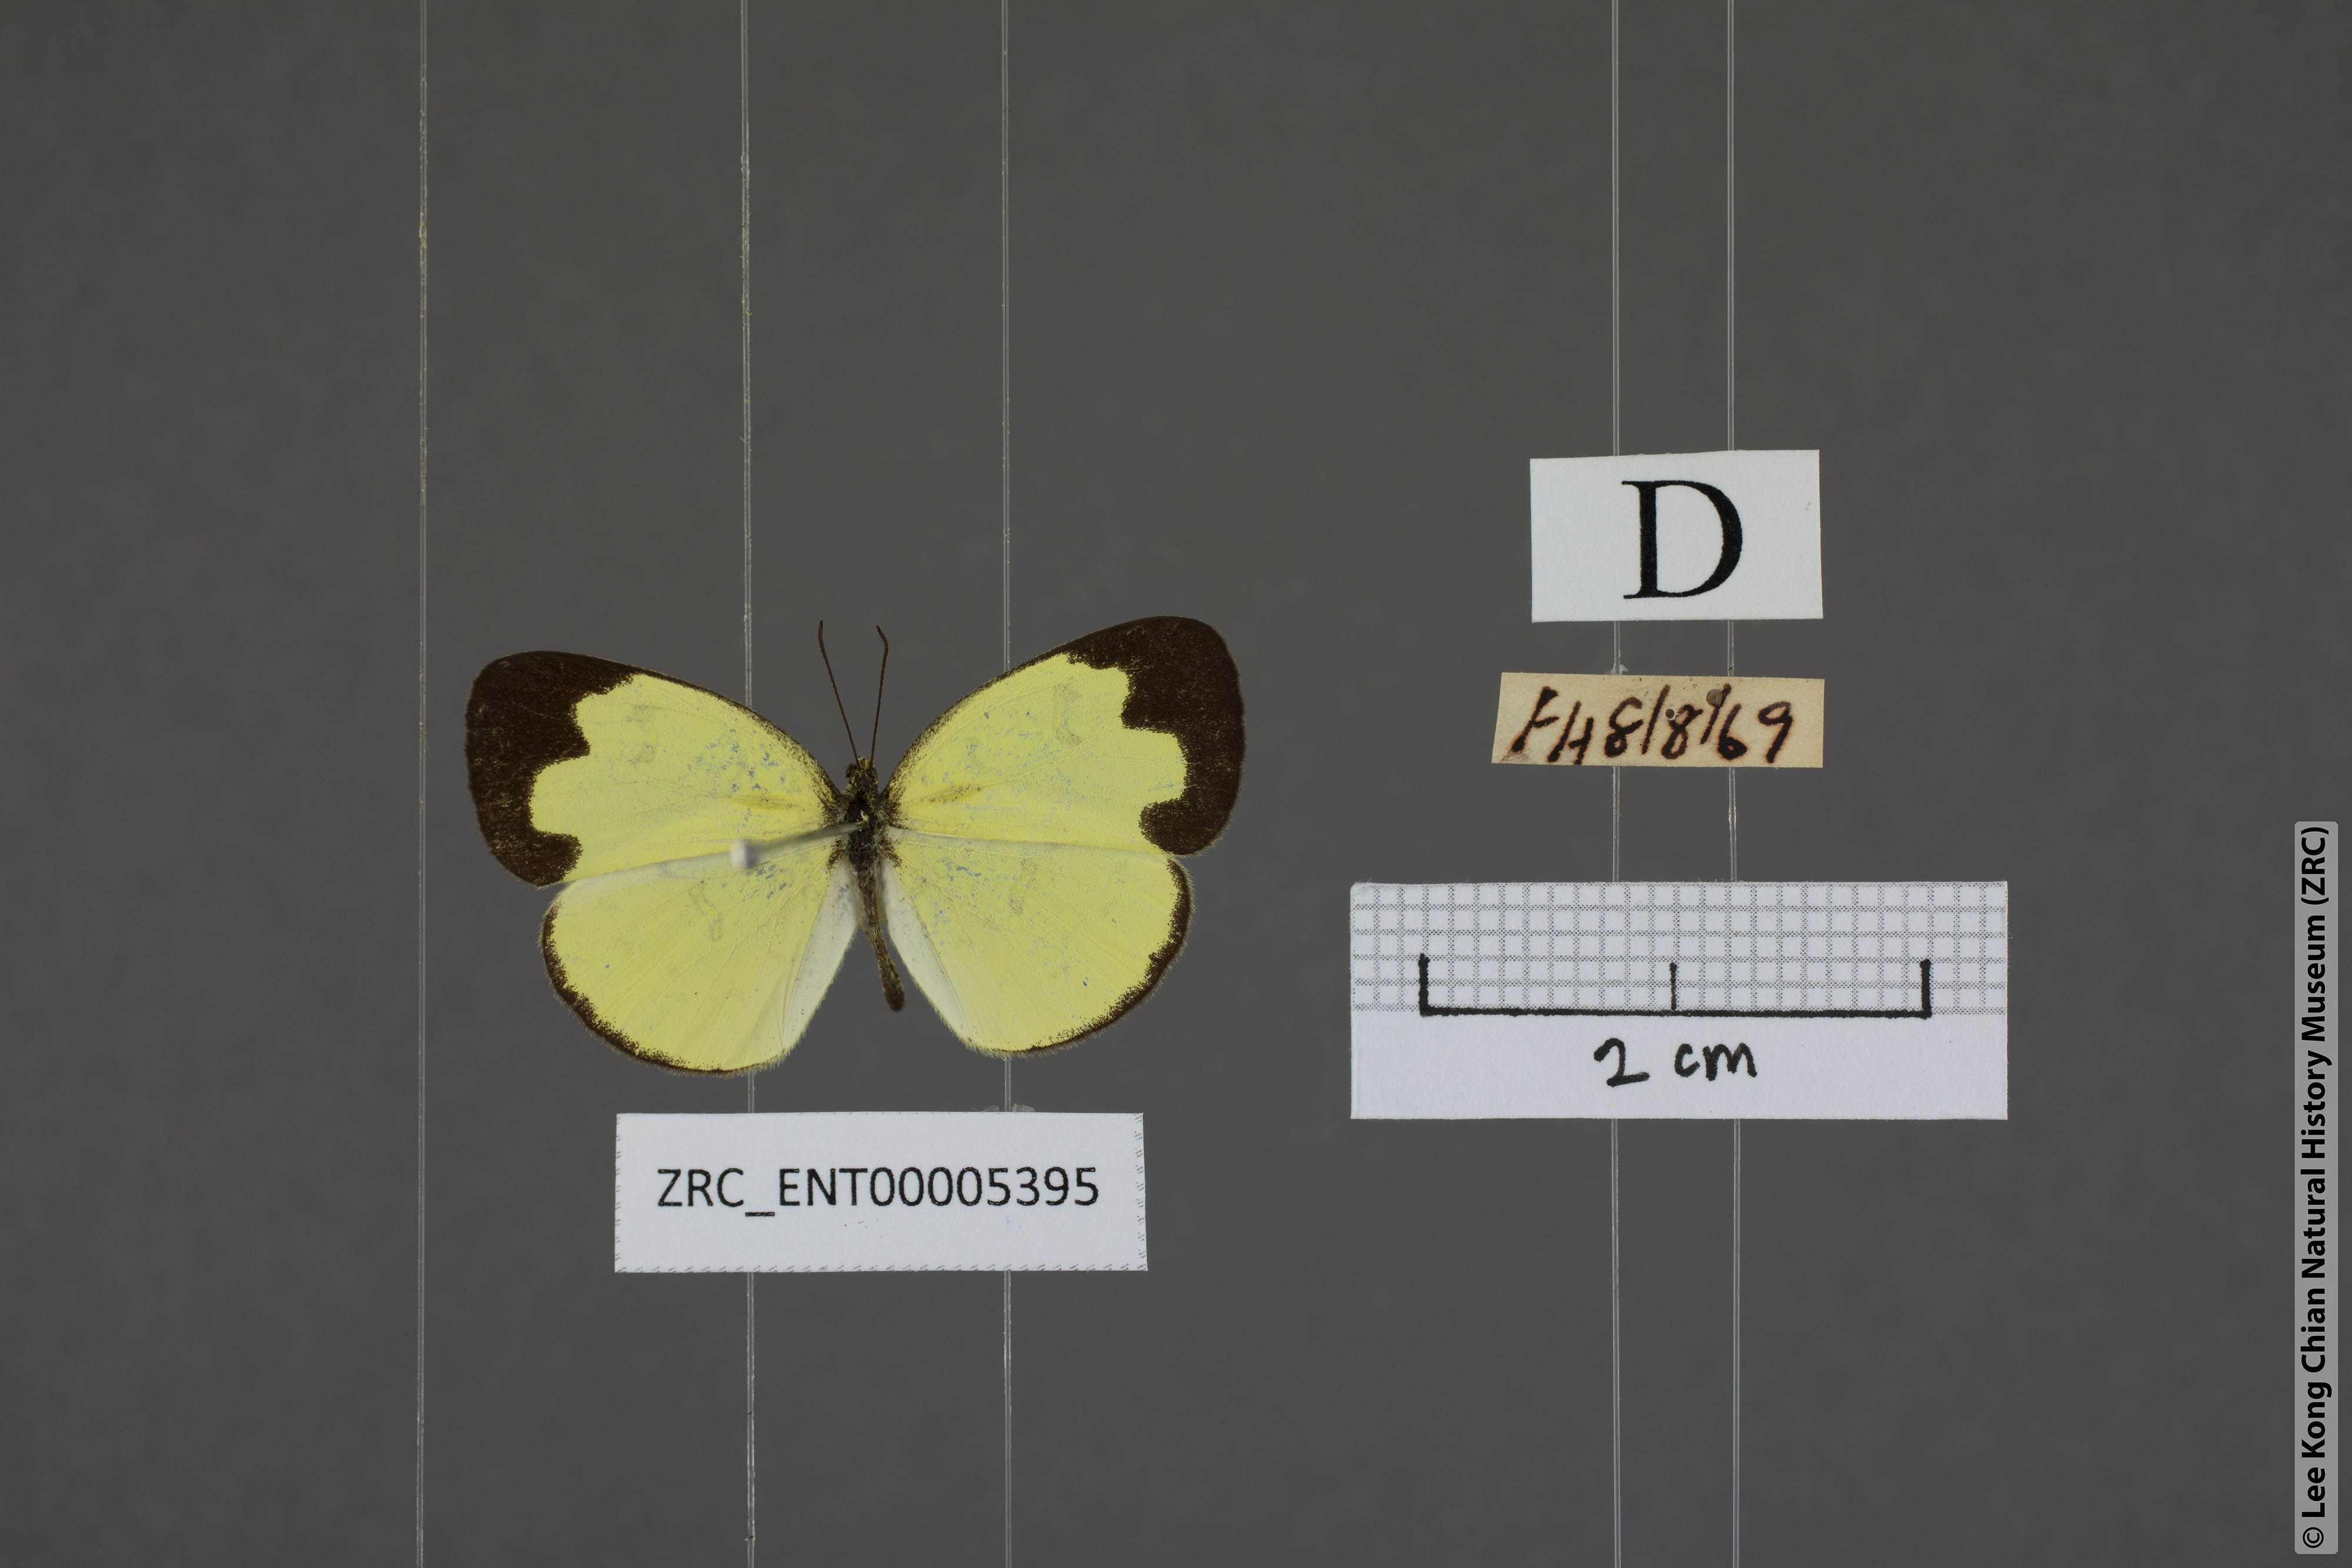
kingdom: Animalia
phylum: Arthropoda
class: Insecta
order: Lepidoptera
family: Pieridae
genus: Eurema
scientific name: Eurema ada
